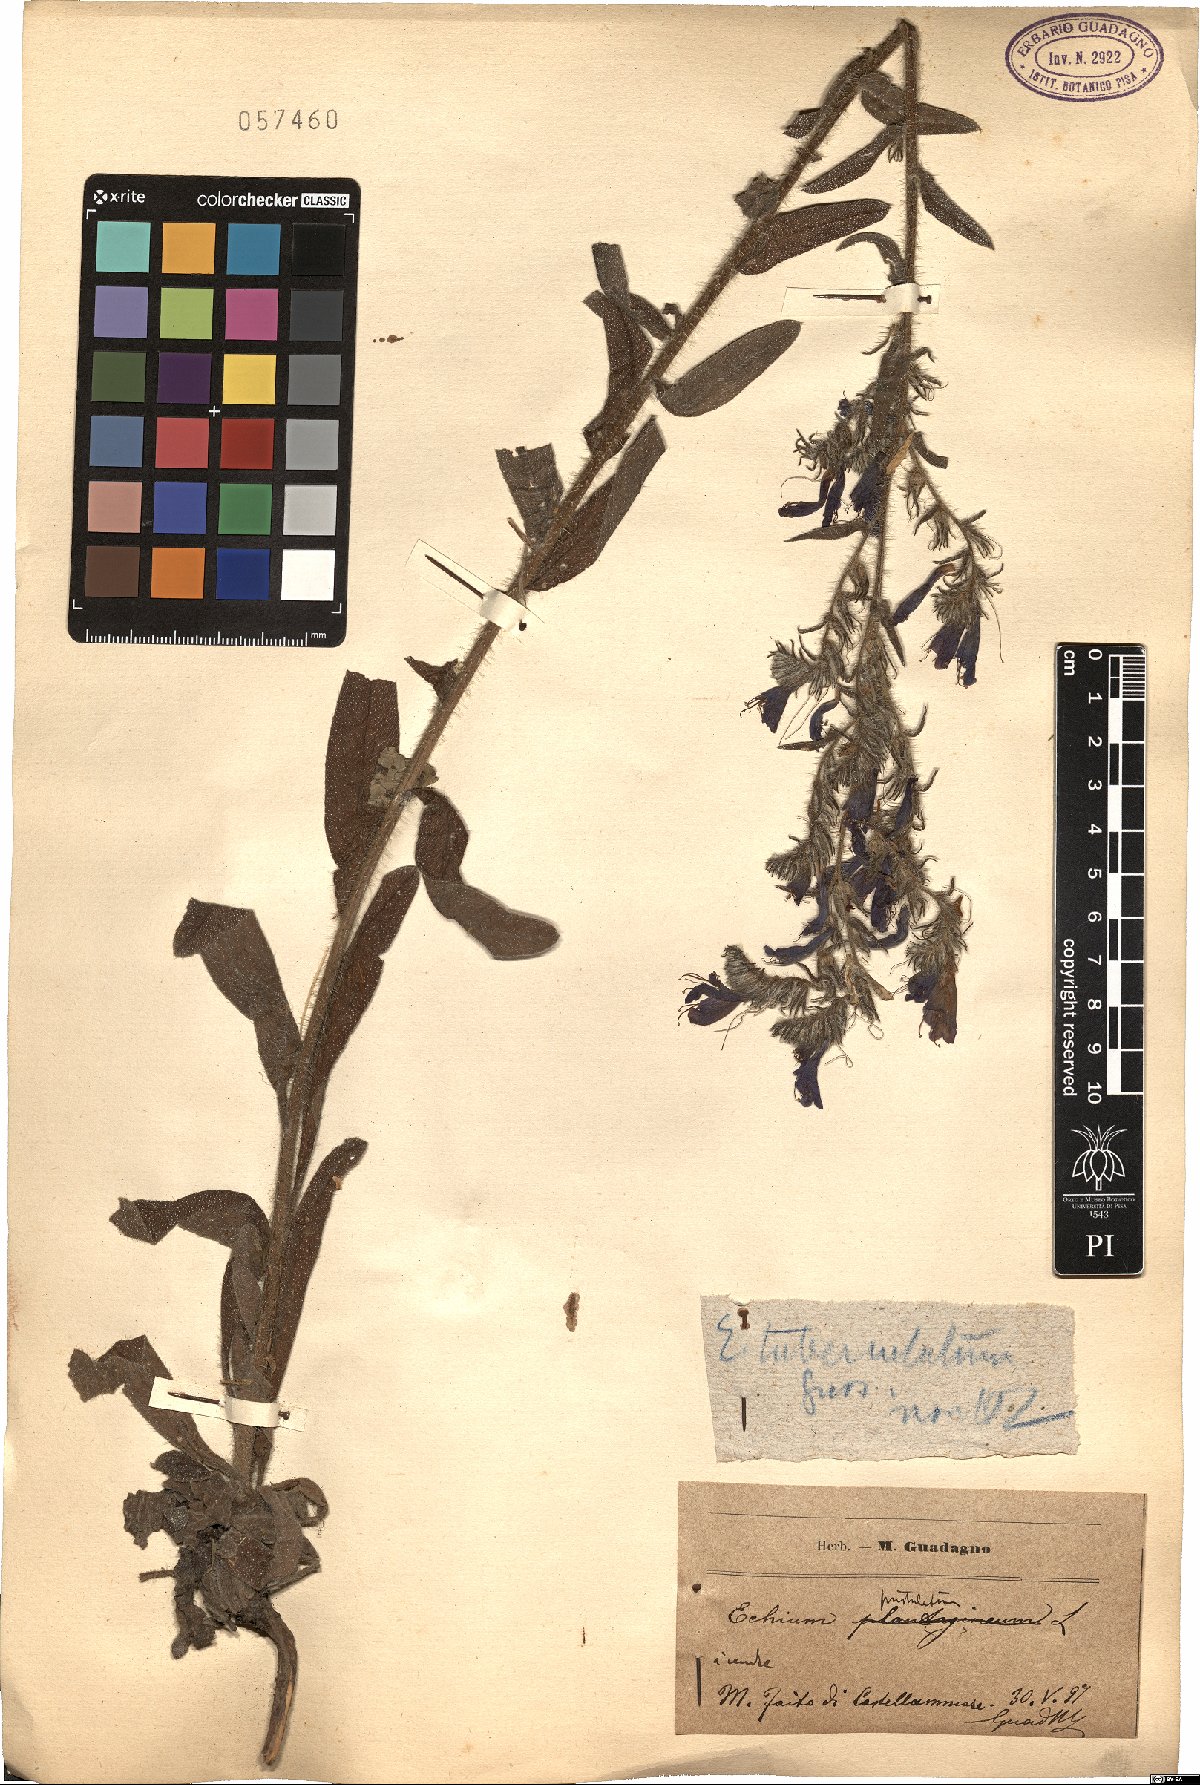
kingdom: Plantae
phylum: Tracheophyta
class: Magnoliopsida
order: Boraginales
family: Boraginaceae
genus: Echium
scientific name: Echium tuberculatum
